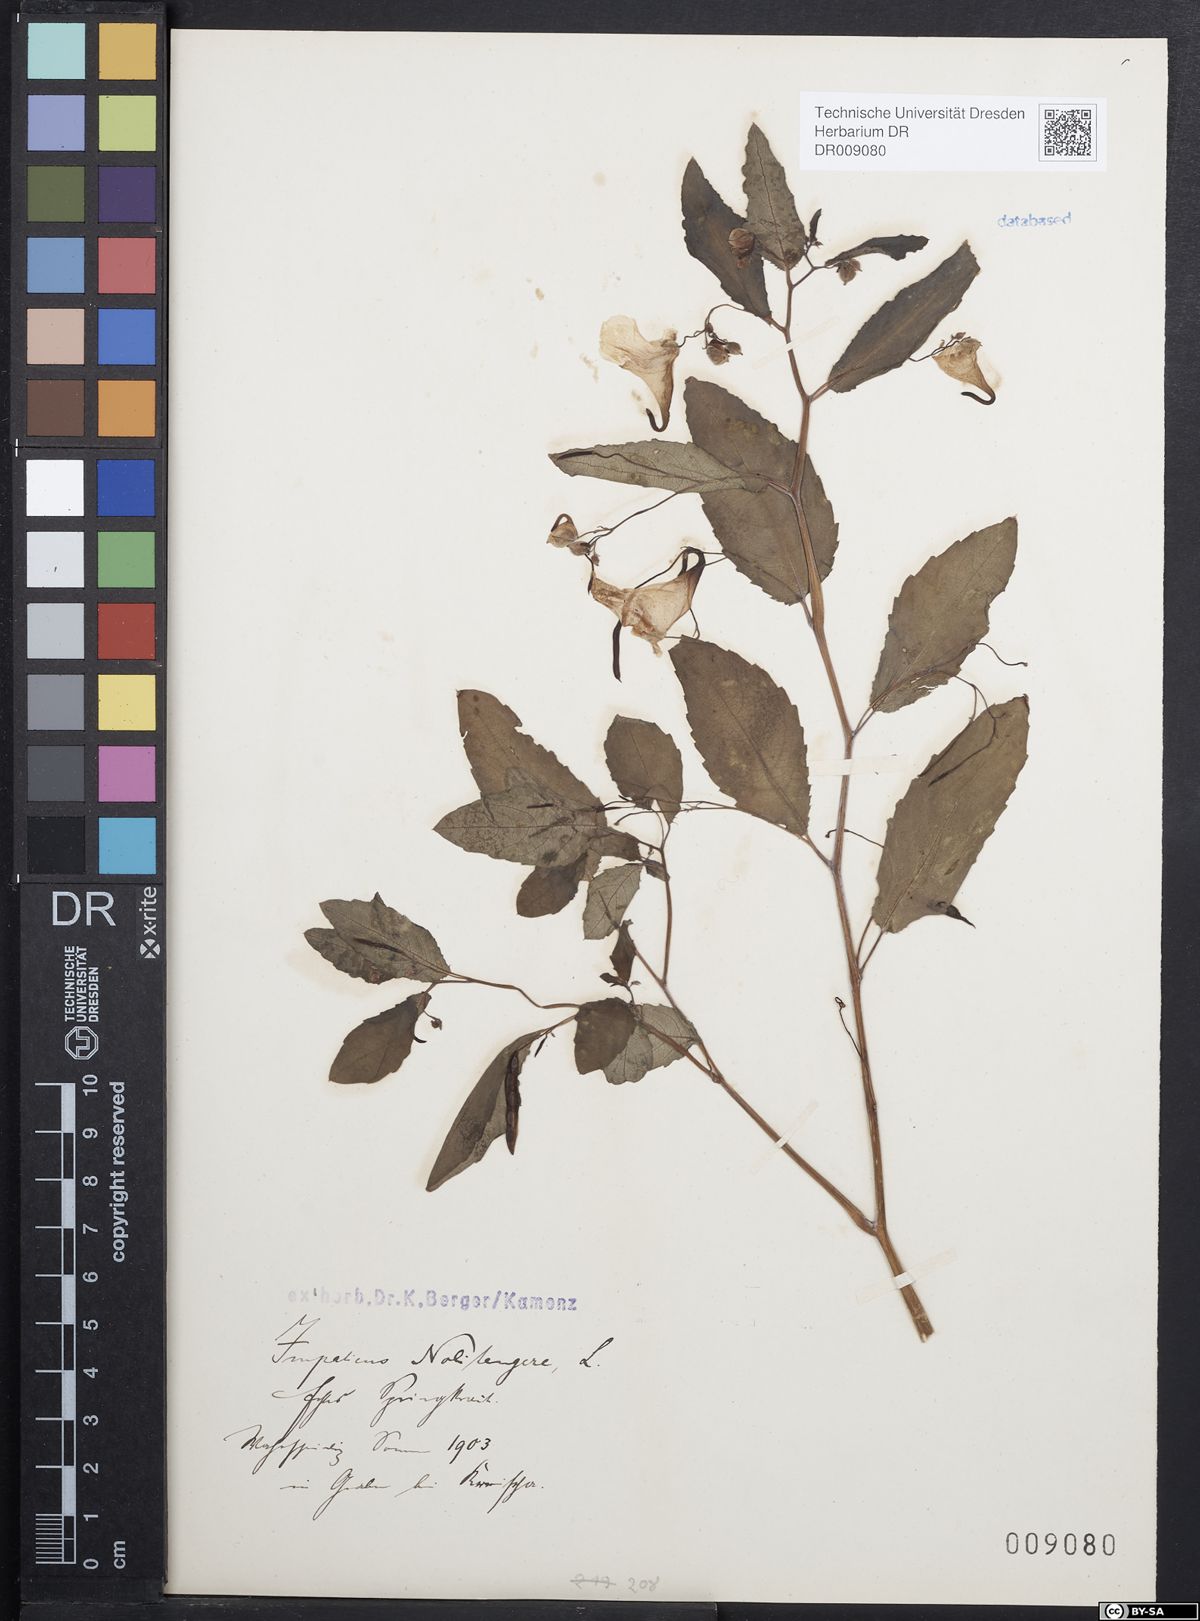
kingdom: Plantae
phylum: Tracheophyta
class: Magnoliopsida
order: Ericales
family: Balsaminaceae
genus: Impatiens
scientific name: Impatiens noli-tangere
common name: Touch-me-not balsam
